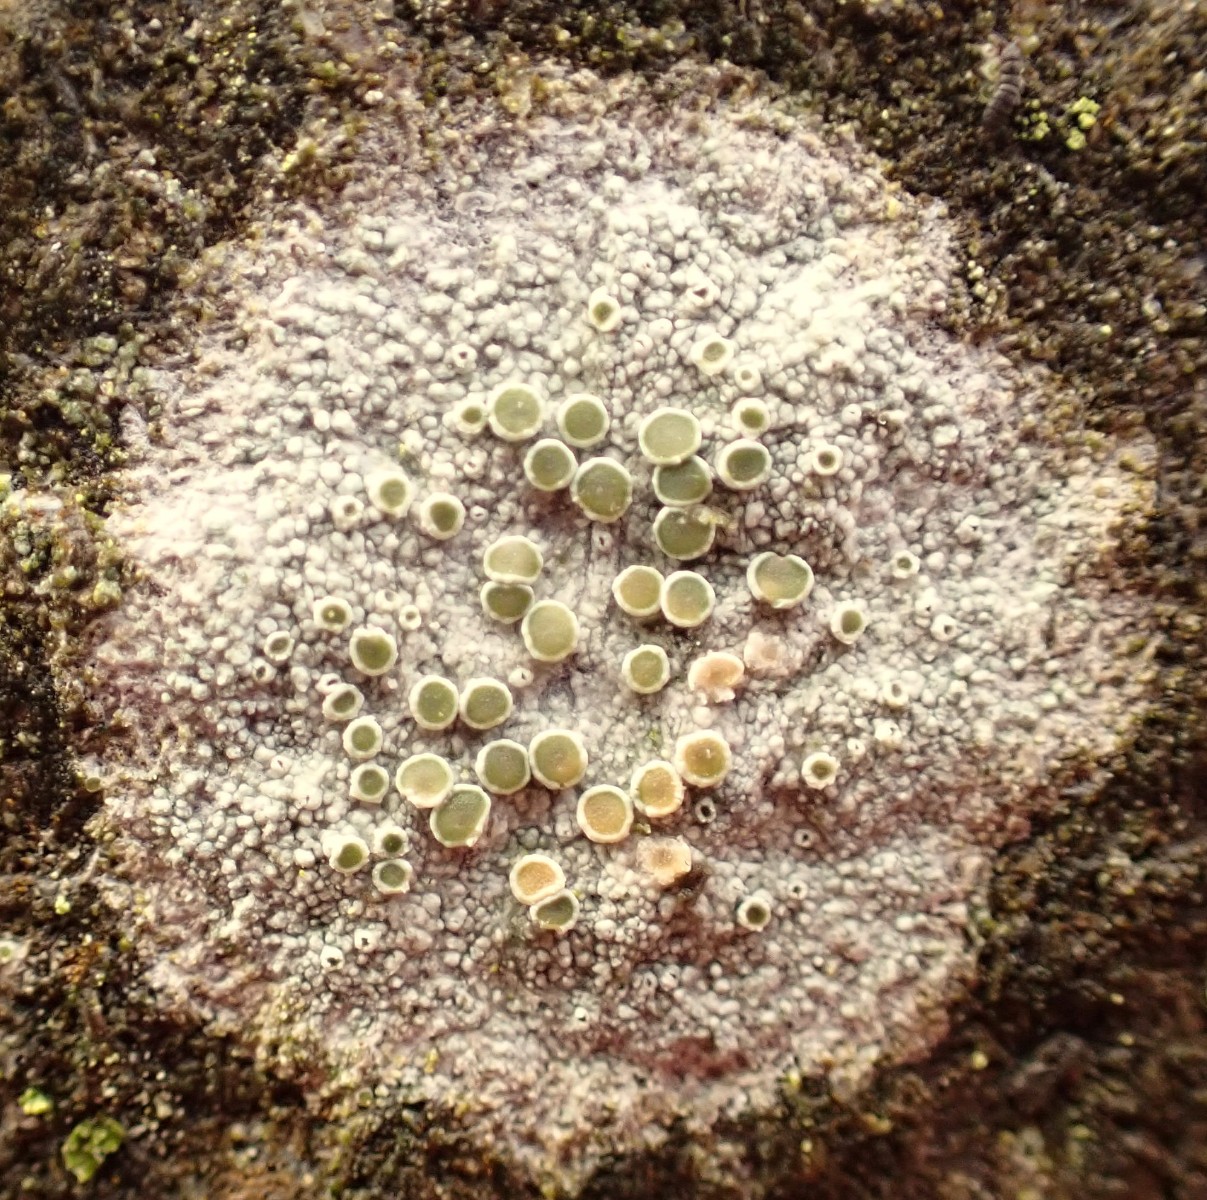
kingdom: Fungi
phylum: Ascomycota
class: Lecanoromycetes
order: Lecanorales
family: Lecanoraceae
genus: Lecanora
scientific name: Lecanora
